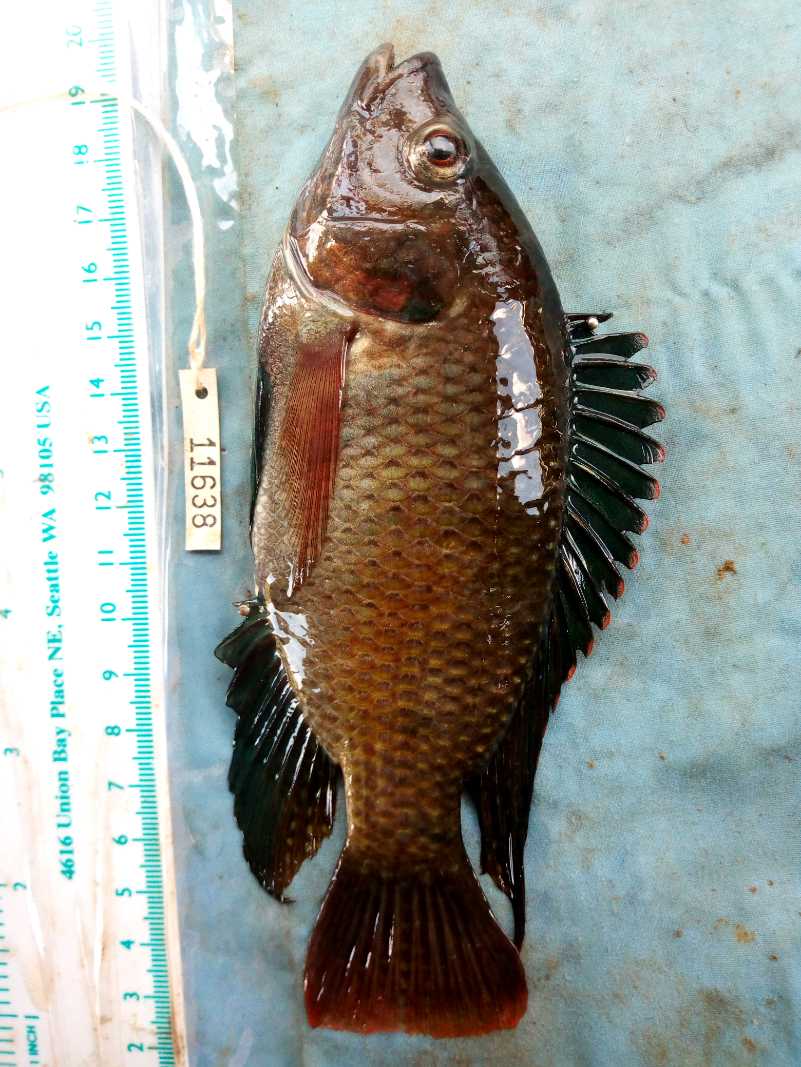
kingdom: Animalia
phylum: Chordata
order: Perciformes
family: Cichlidae
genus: Oreochromis
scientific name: Oreochromis spilurus
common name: Sabaki tilapia
